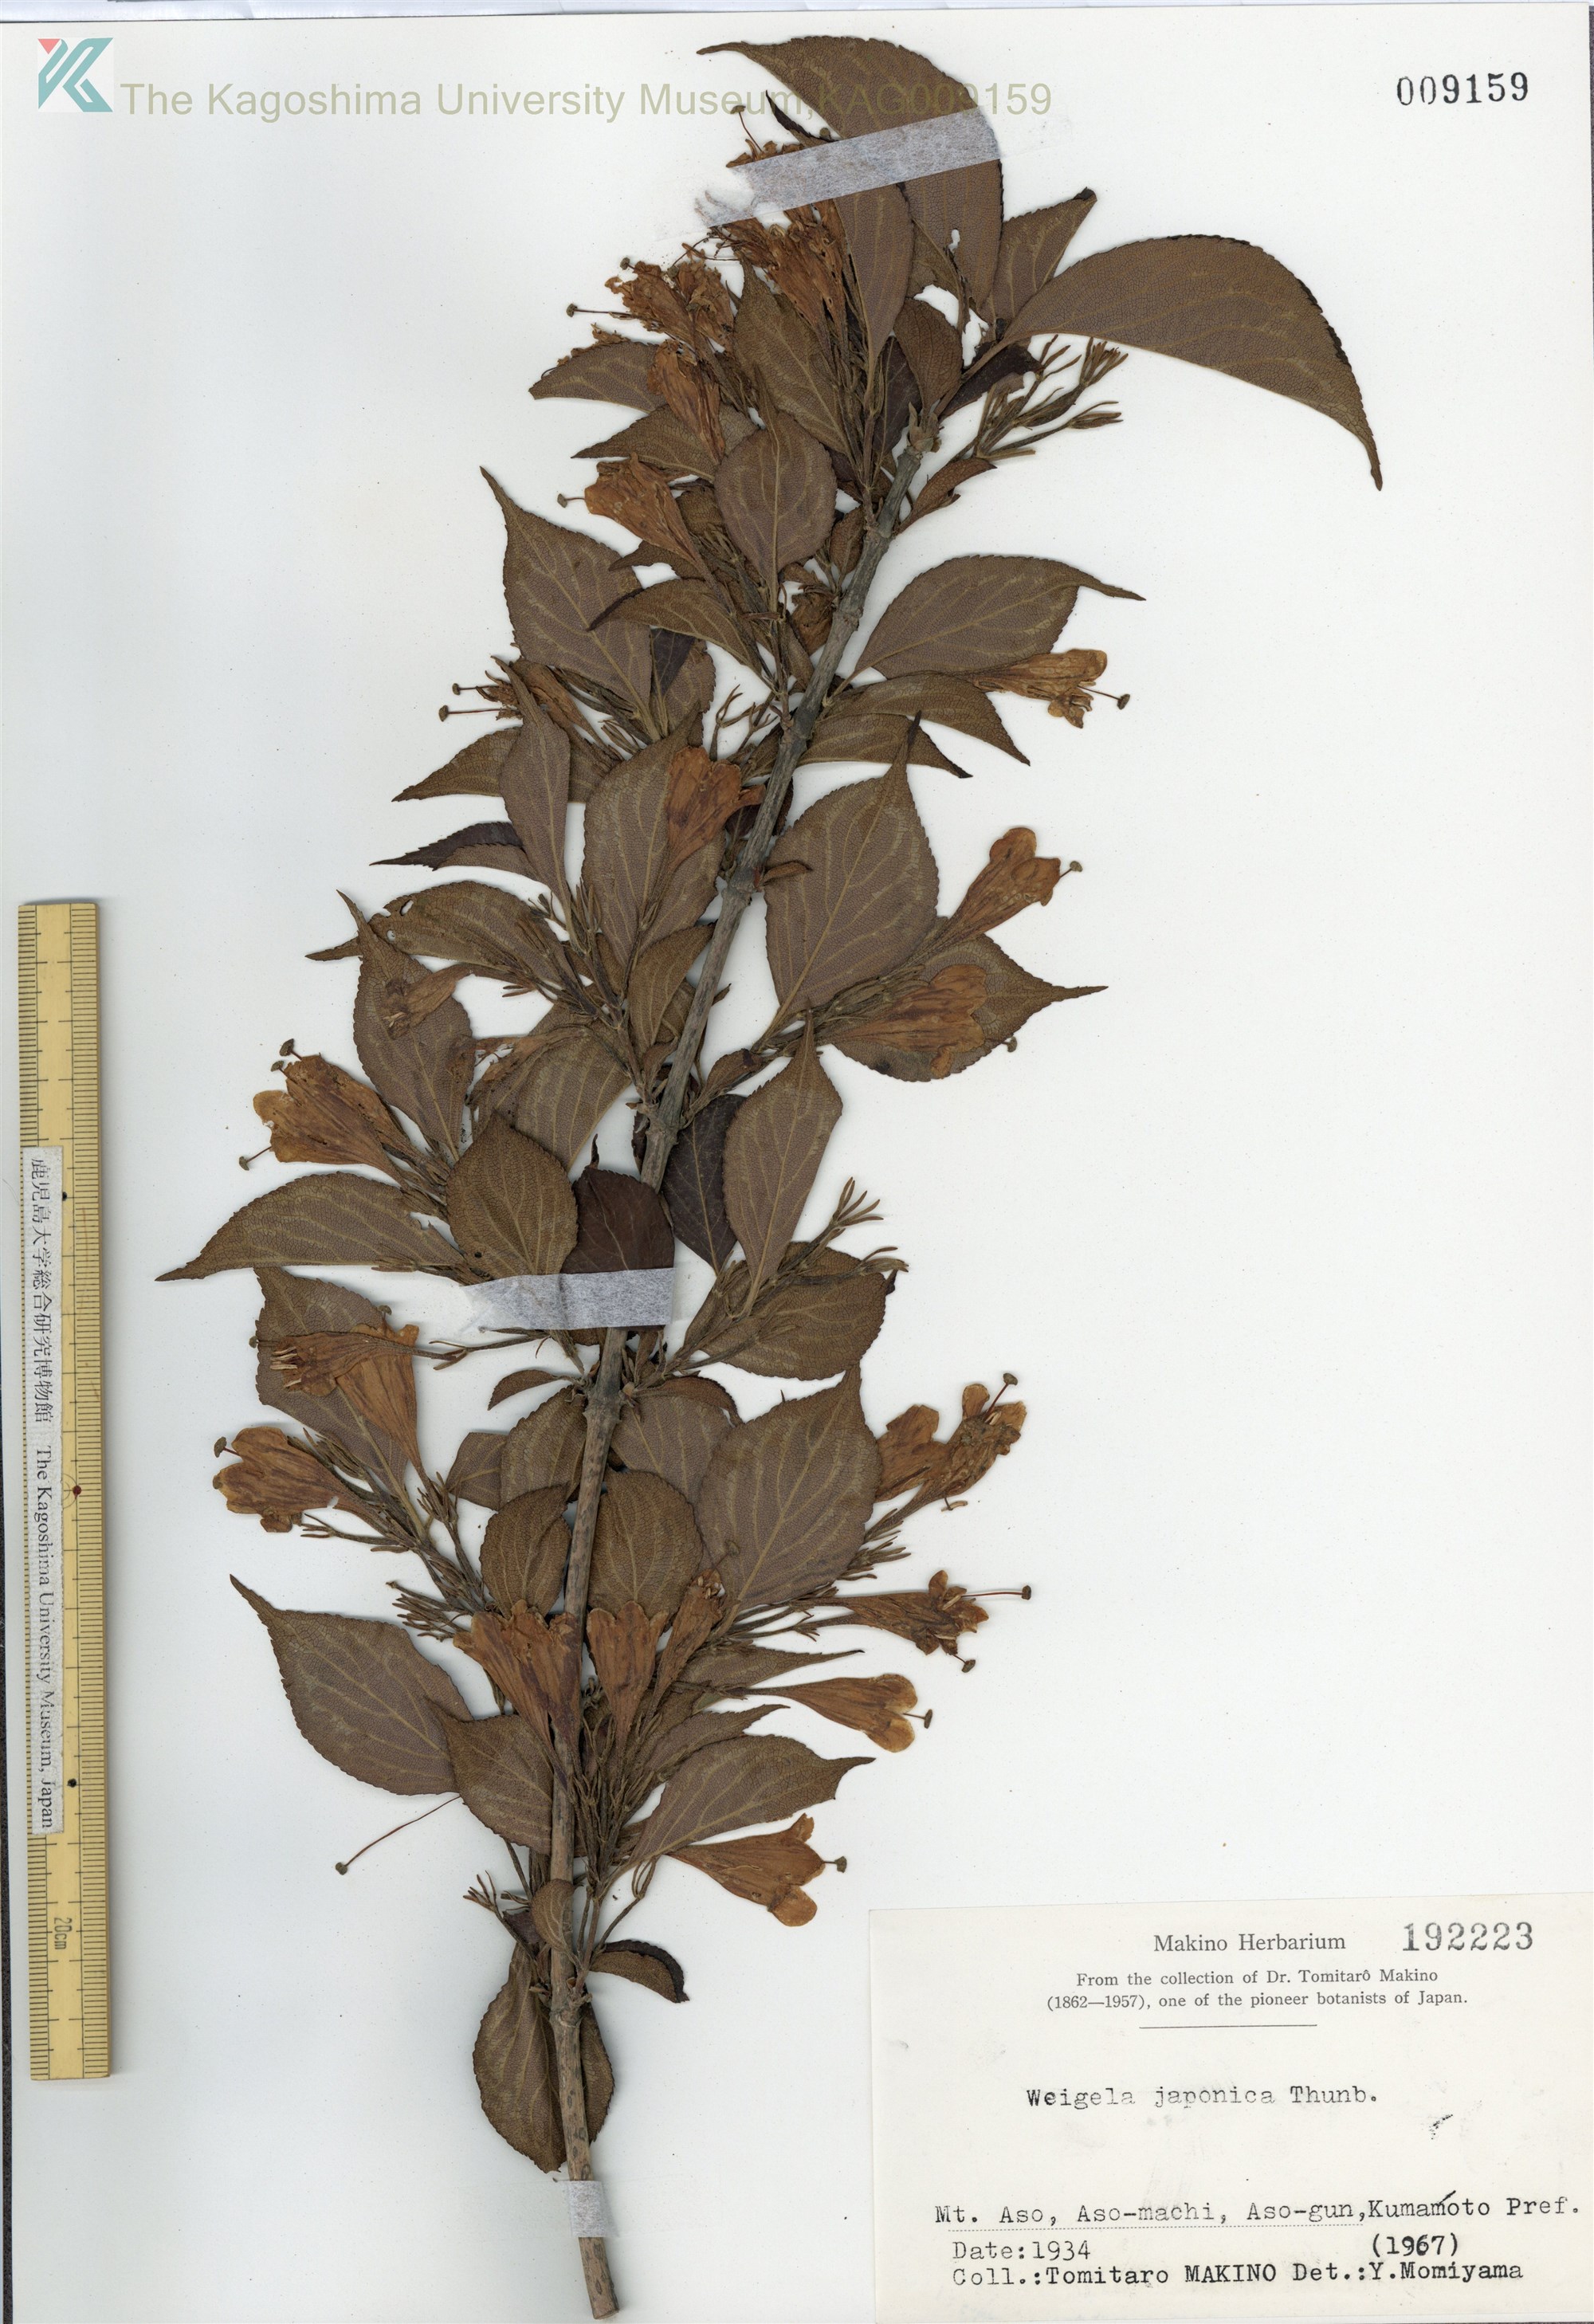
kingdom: Plantae
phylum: Tracheophyta
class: Magnoliopsida
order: Dipsacales
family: Caprifoliaceae
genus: Weigela
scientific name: Weigela japonica
